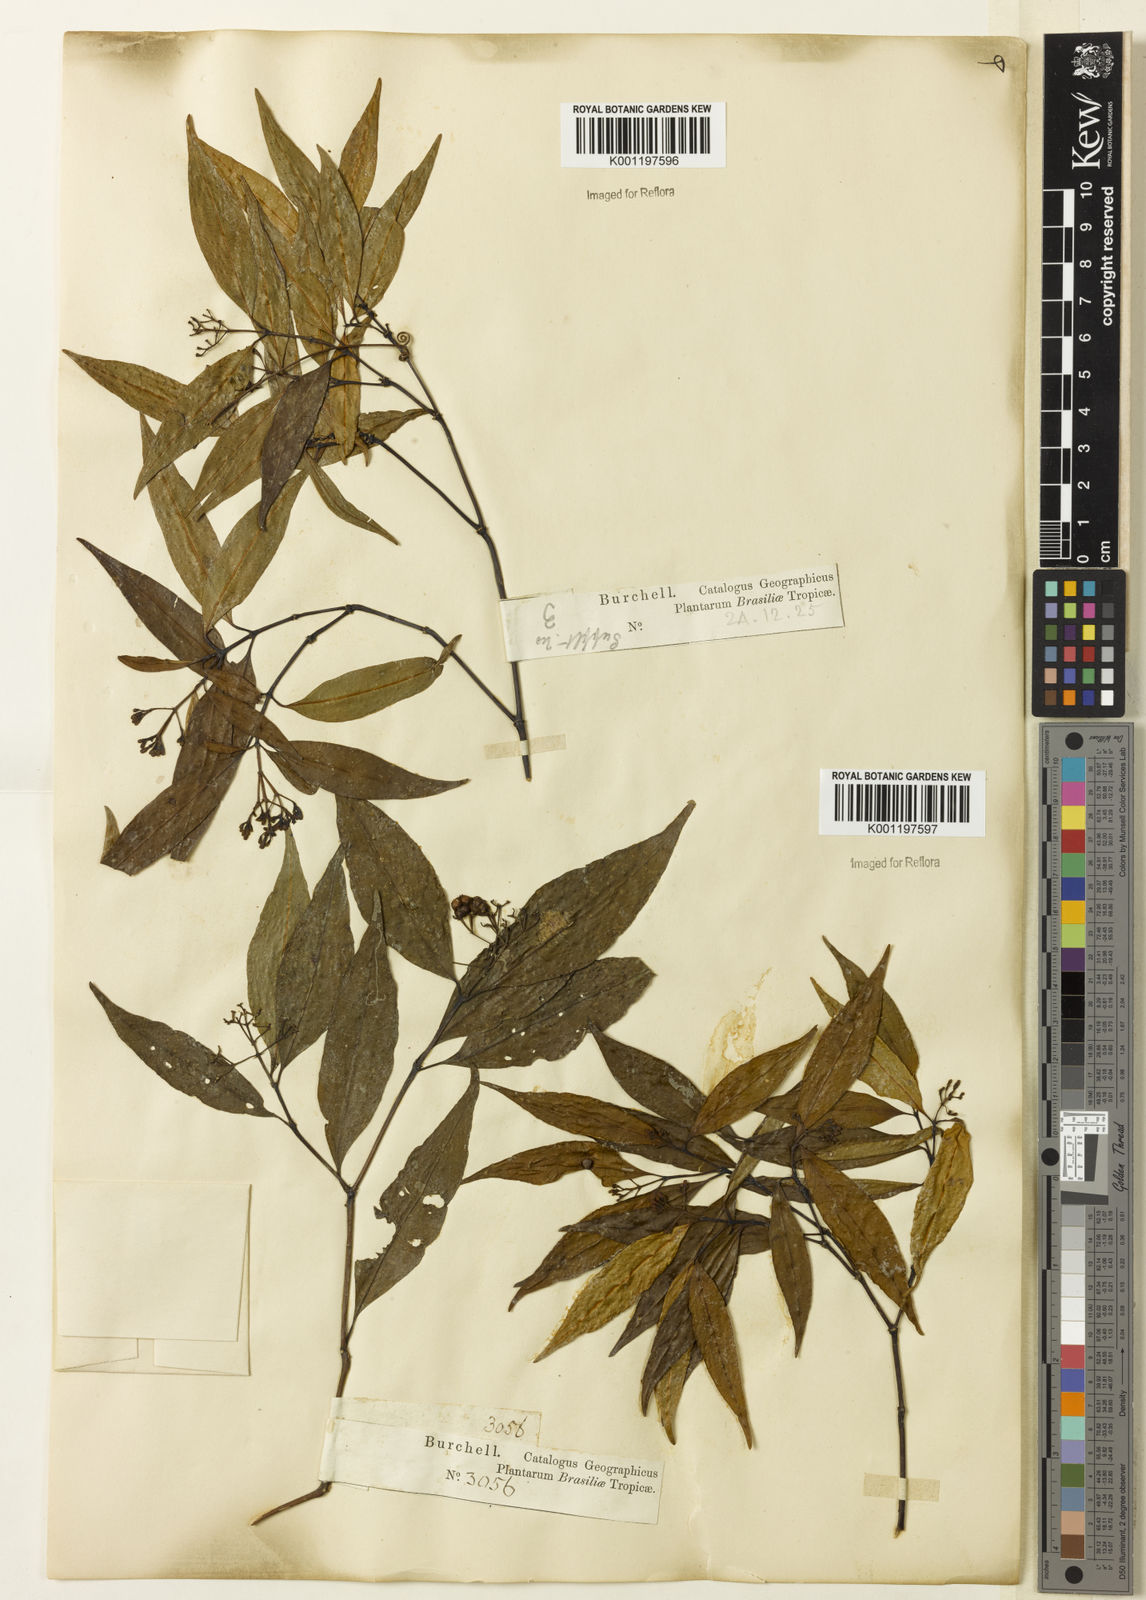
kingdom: Plantae
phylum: Tracheophyta
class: Magnoliopsida
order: Gentianales
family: Rubiaceae
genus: Psychotria
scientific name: Psychotria leiocarpa
